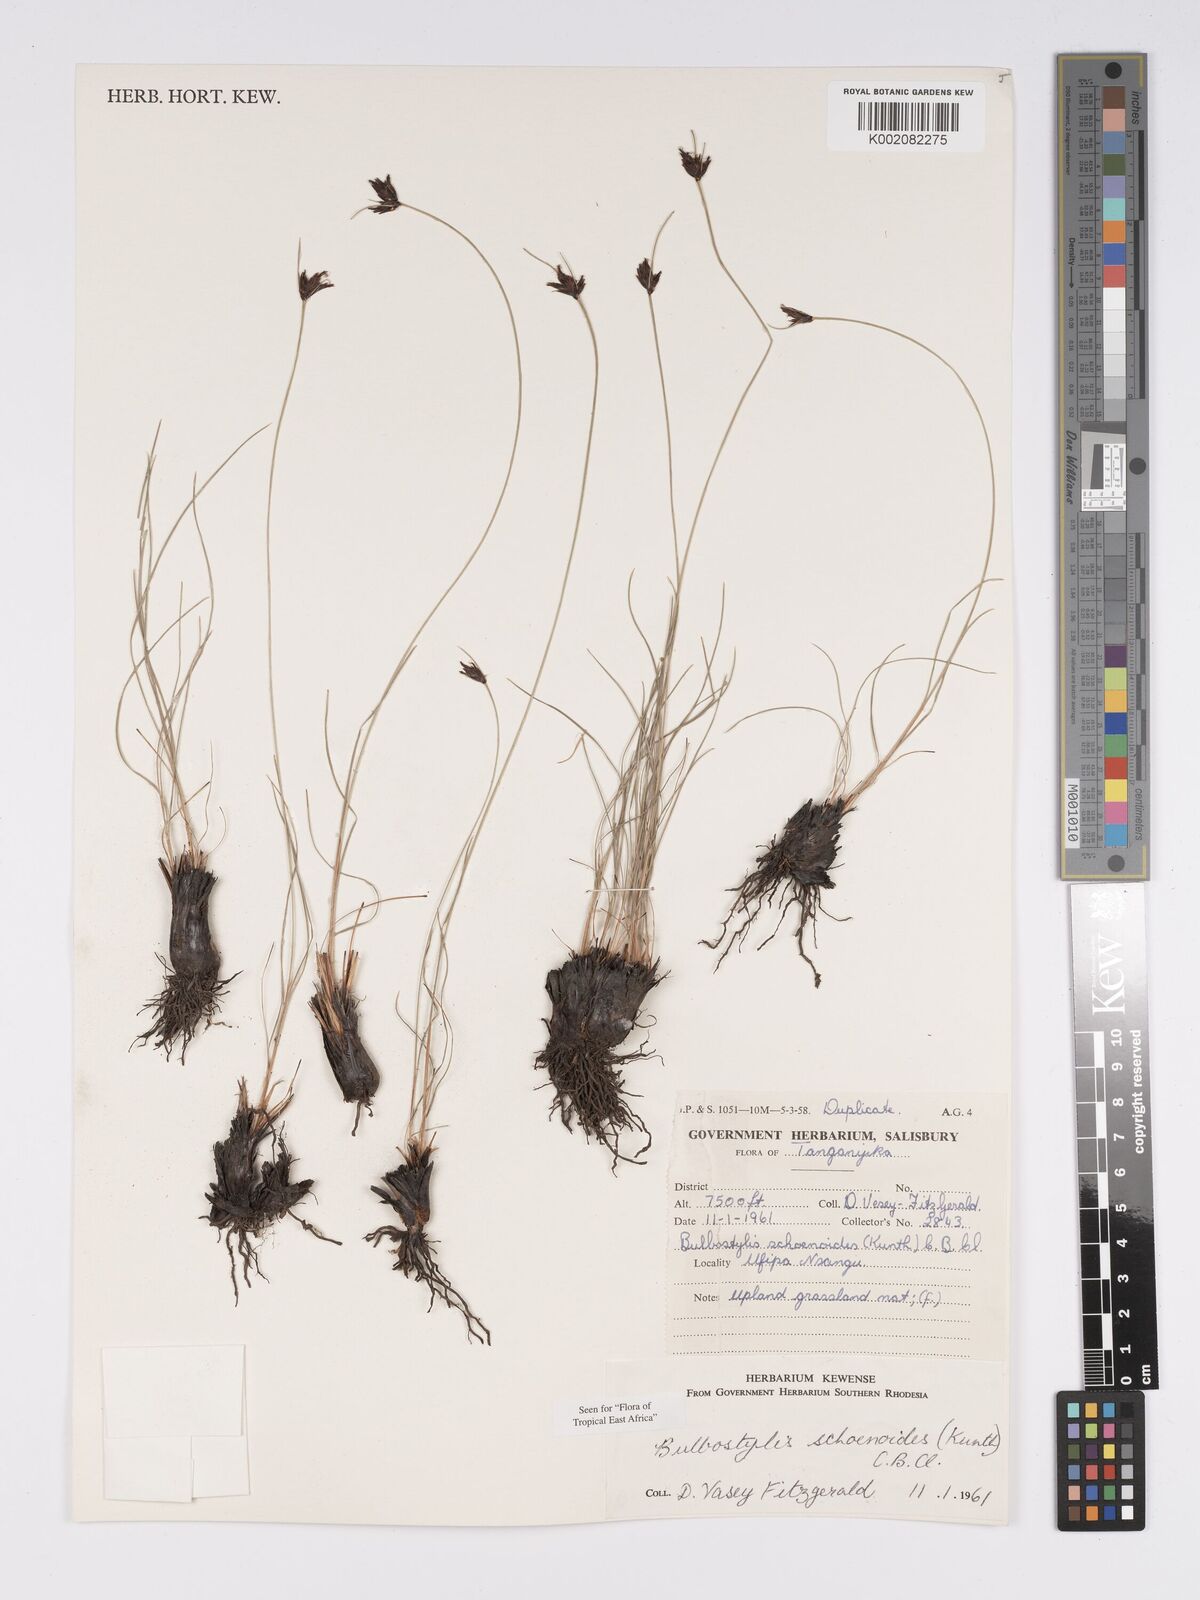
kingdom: Plantae
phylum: Tracheophyta
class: Liliopsida
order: Poales
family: Cyperaceae
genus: Bulbostylis
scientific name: Bulbostylis schoenoides
